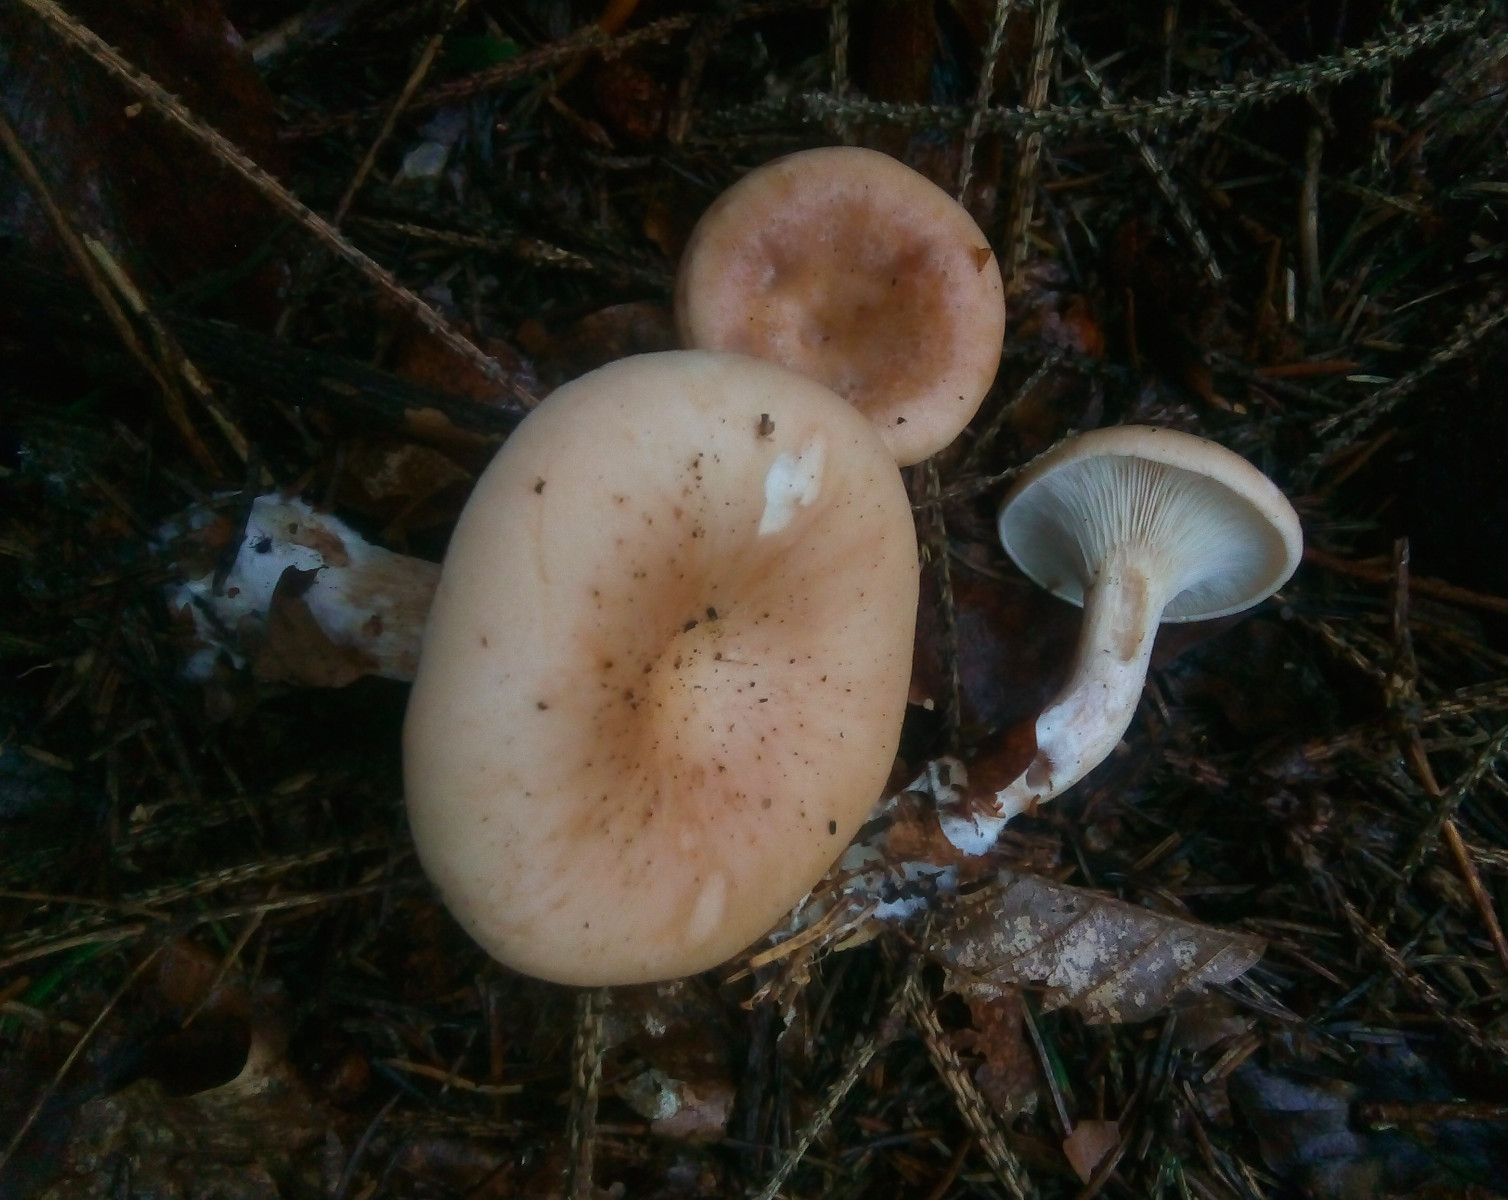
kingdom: Fungi
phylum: Basidiomycota
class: Agaricomycetes
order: Agaricales
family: Tricholomataceae
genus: Paralepista
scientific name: Paralepista flaccida
